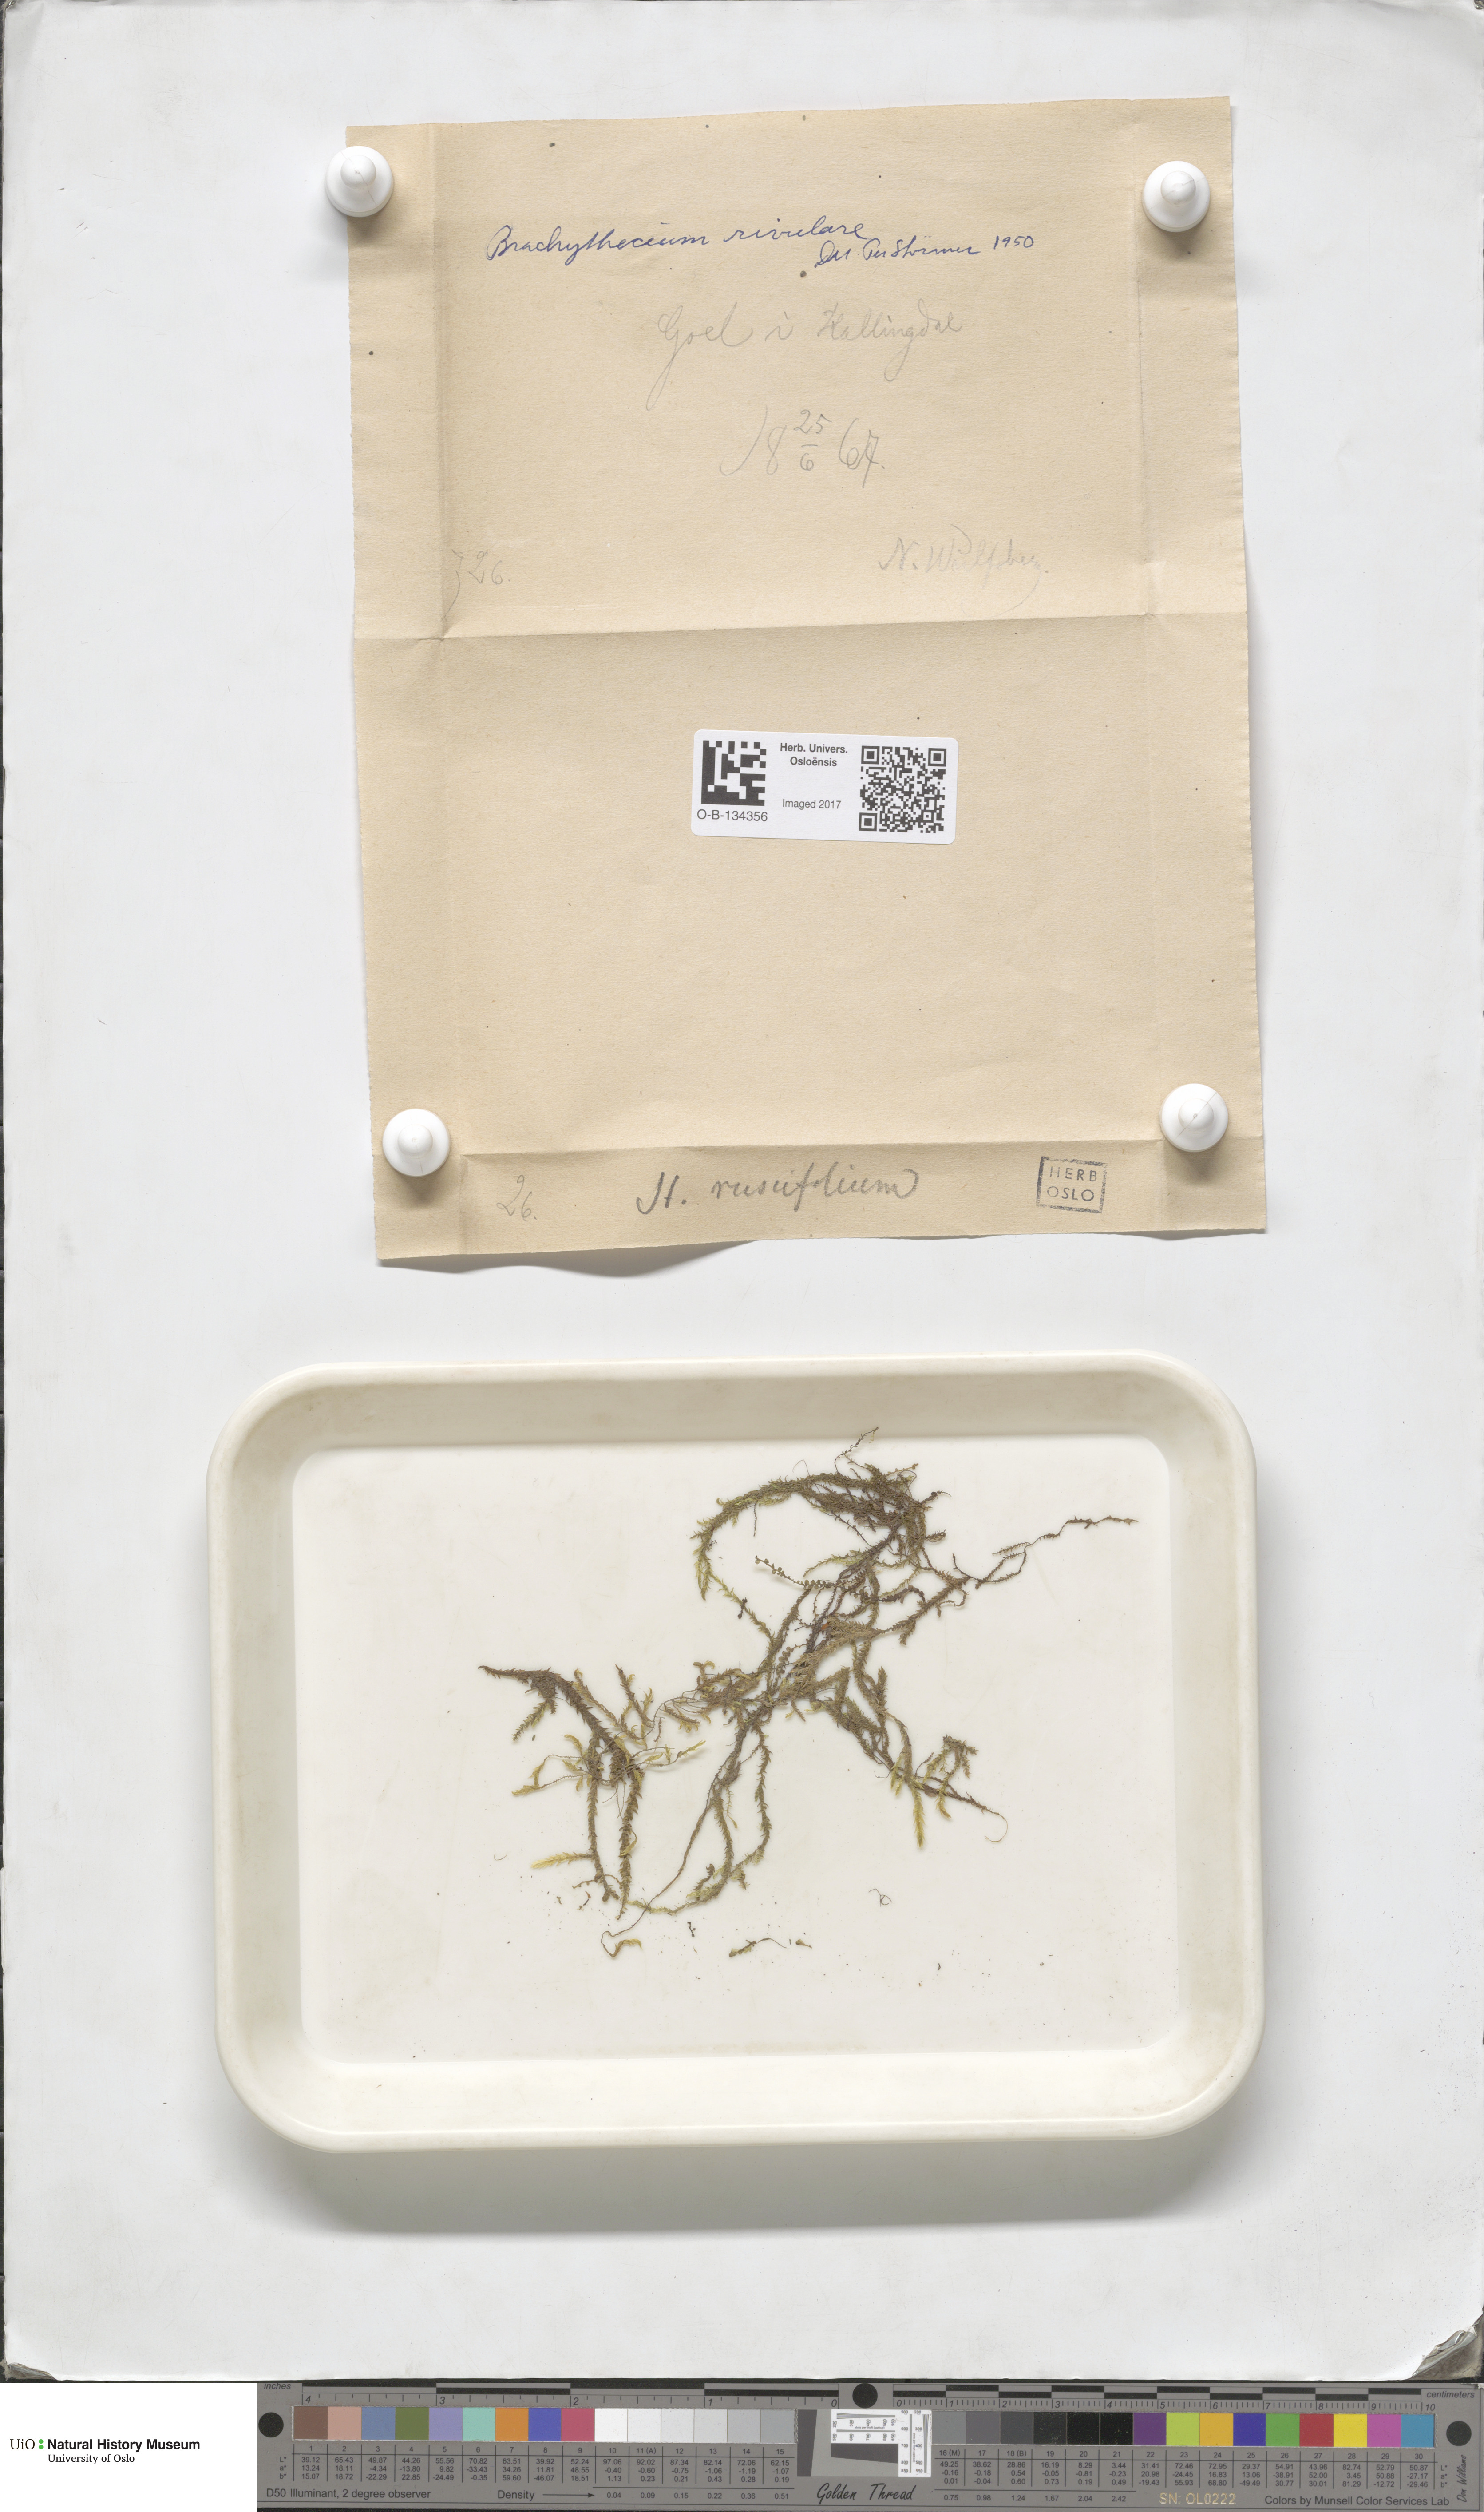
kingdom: Plantae
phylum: Bryophyta
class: Bryopsida
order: Hypnales
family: Brachytheciaceae
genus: Brachythecium
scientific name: Brachythecium rivulare
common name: River ragged moss
